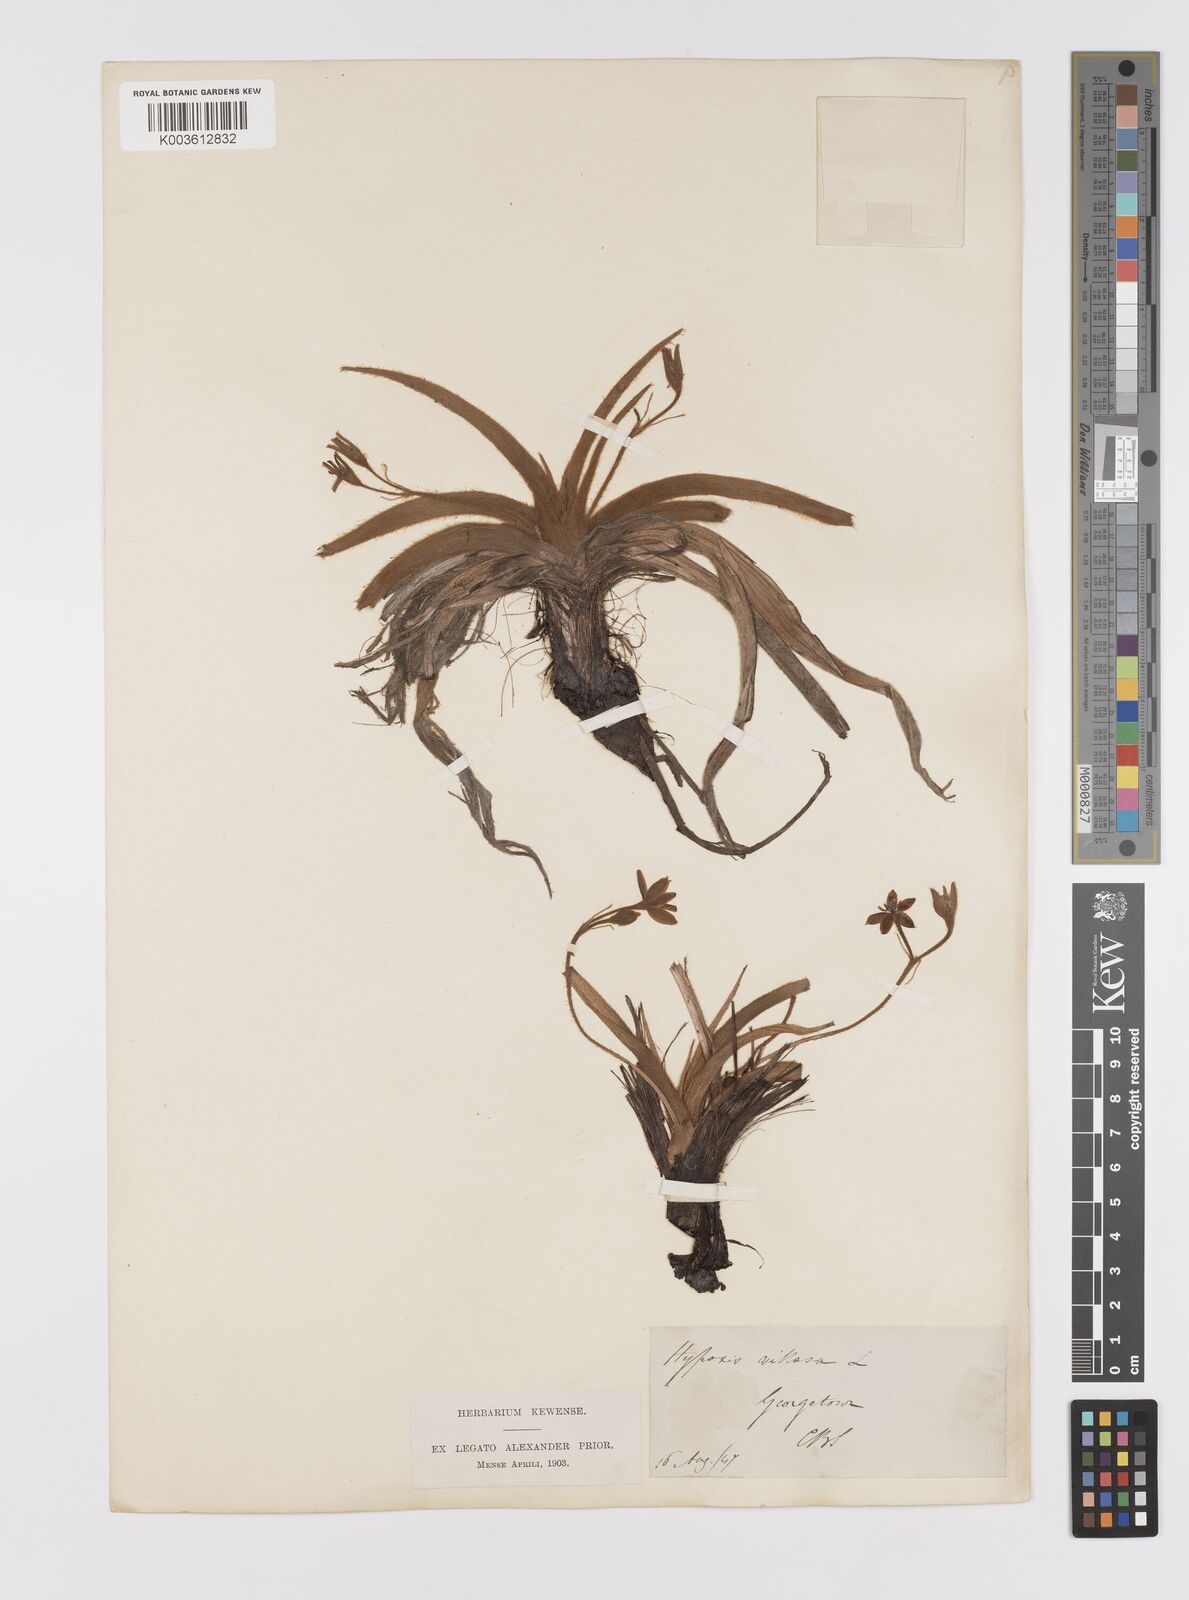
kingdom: Plantae
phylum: Tracheophyta
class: Liliopsida
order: Asparagales
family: Hypoxidaceae
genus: Hypoxis
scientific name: Hypoxis villosa
